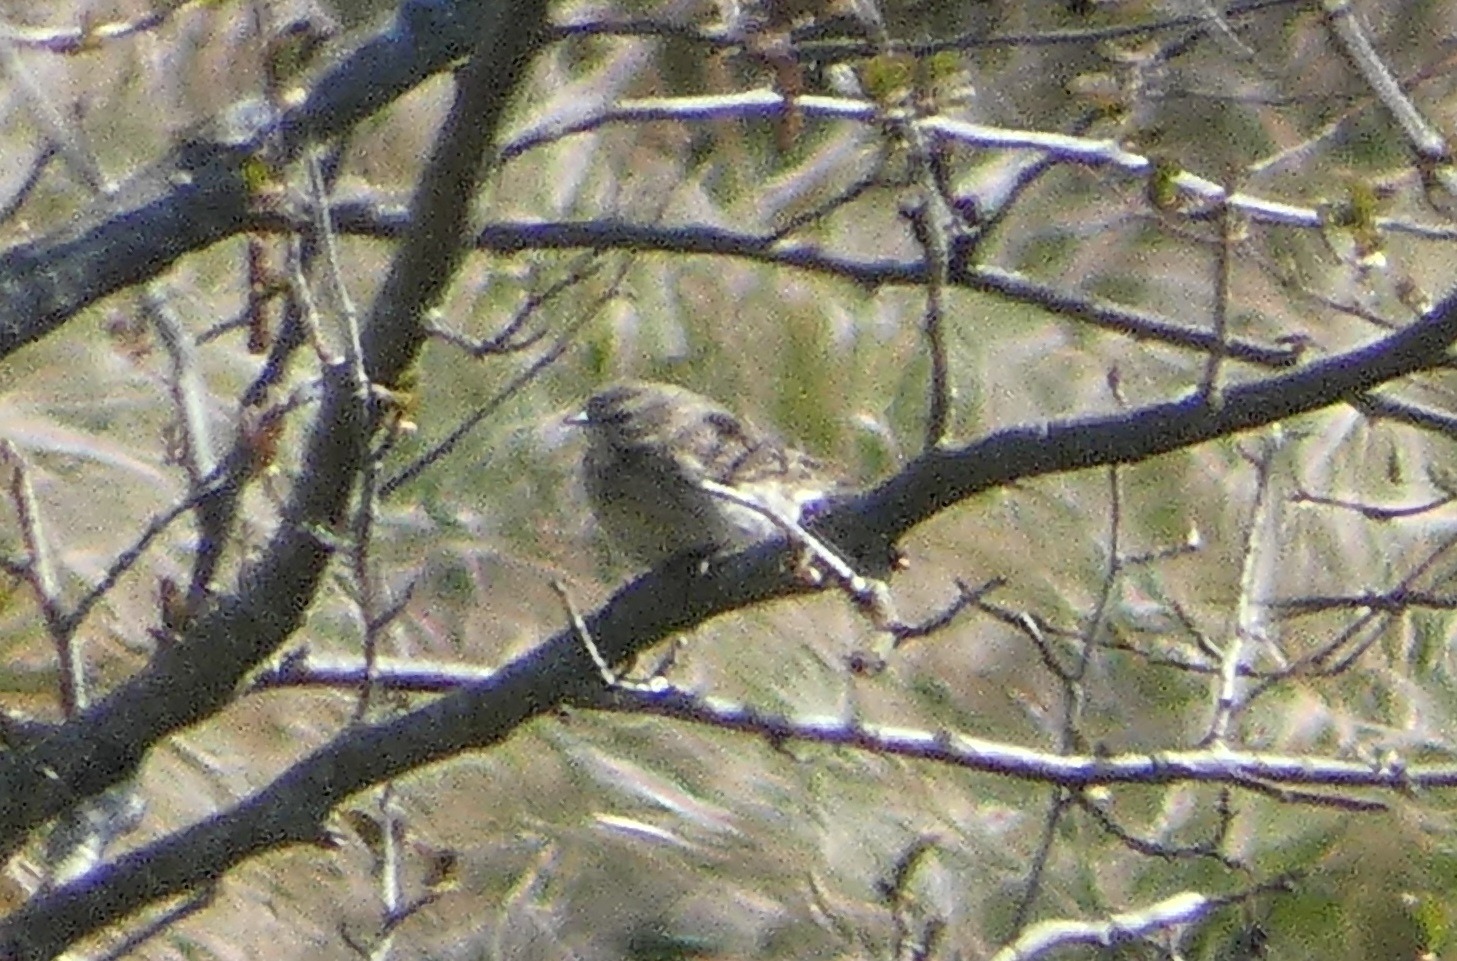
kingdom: Animalia
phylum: Chordata
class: Aves
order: Passeriformes
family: Motacillidae
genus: Anthus
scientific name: Anthus pratensis
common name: Engpiber
